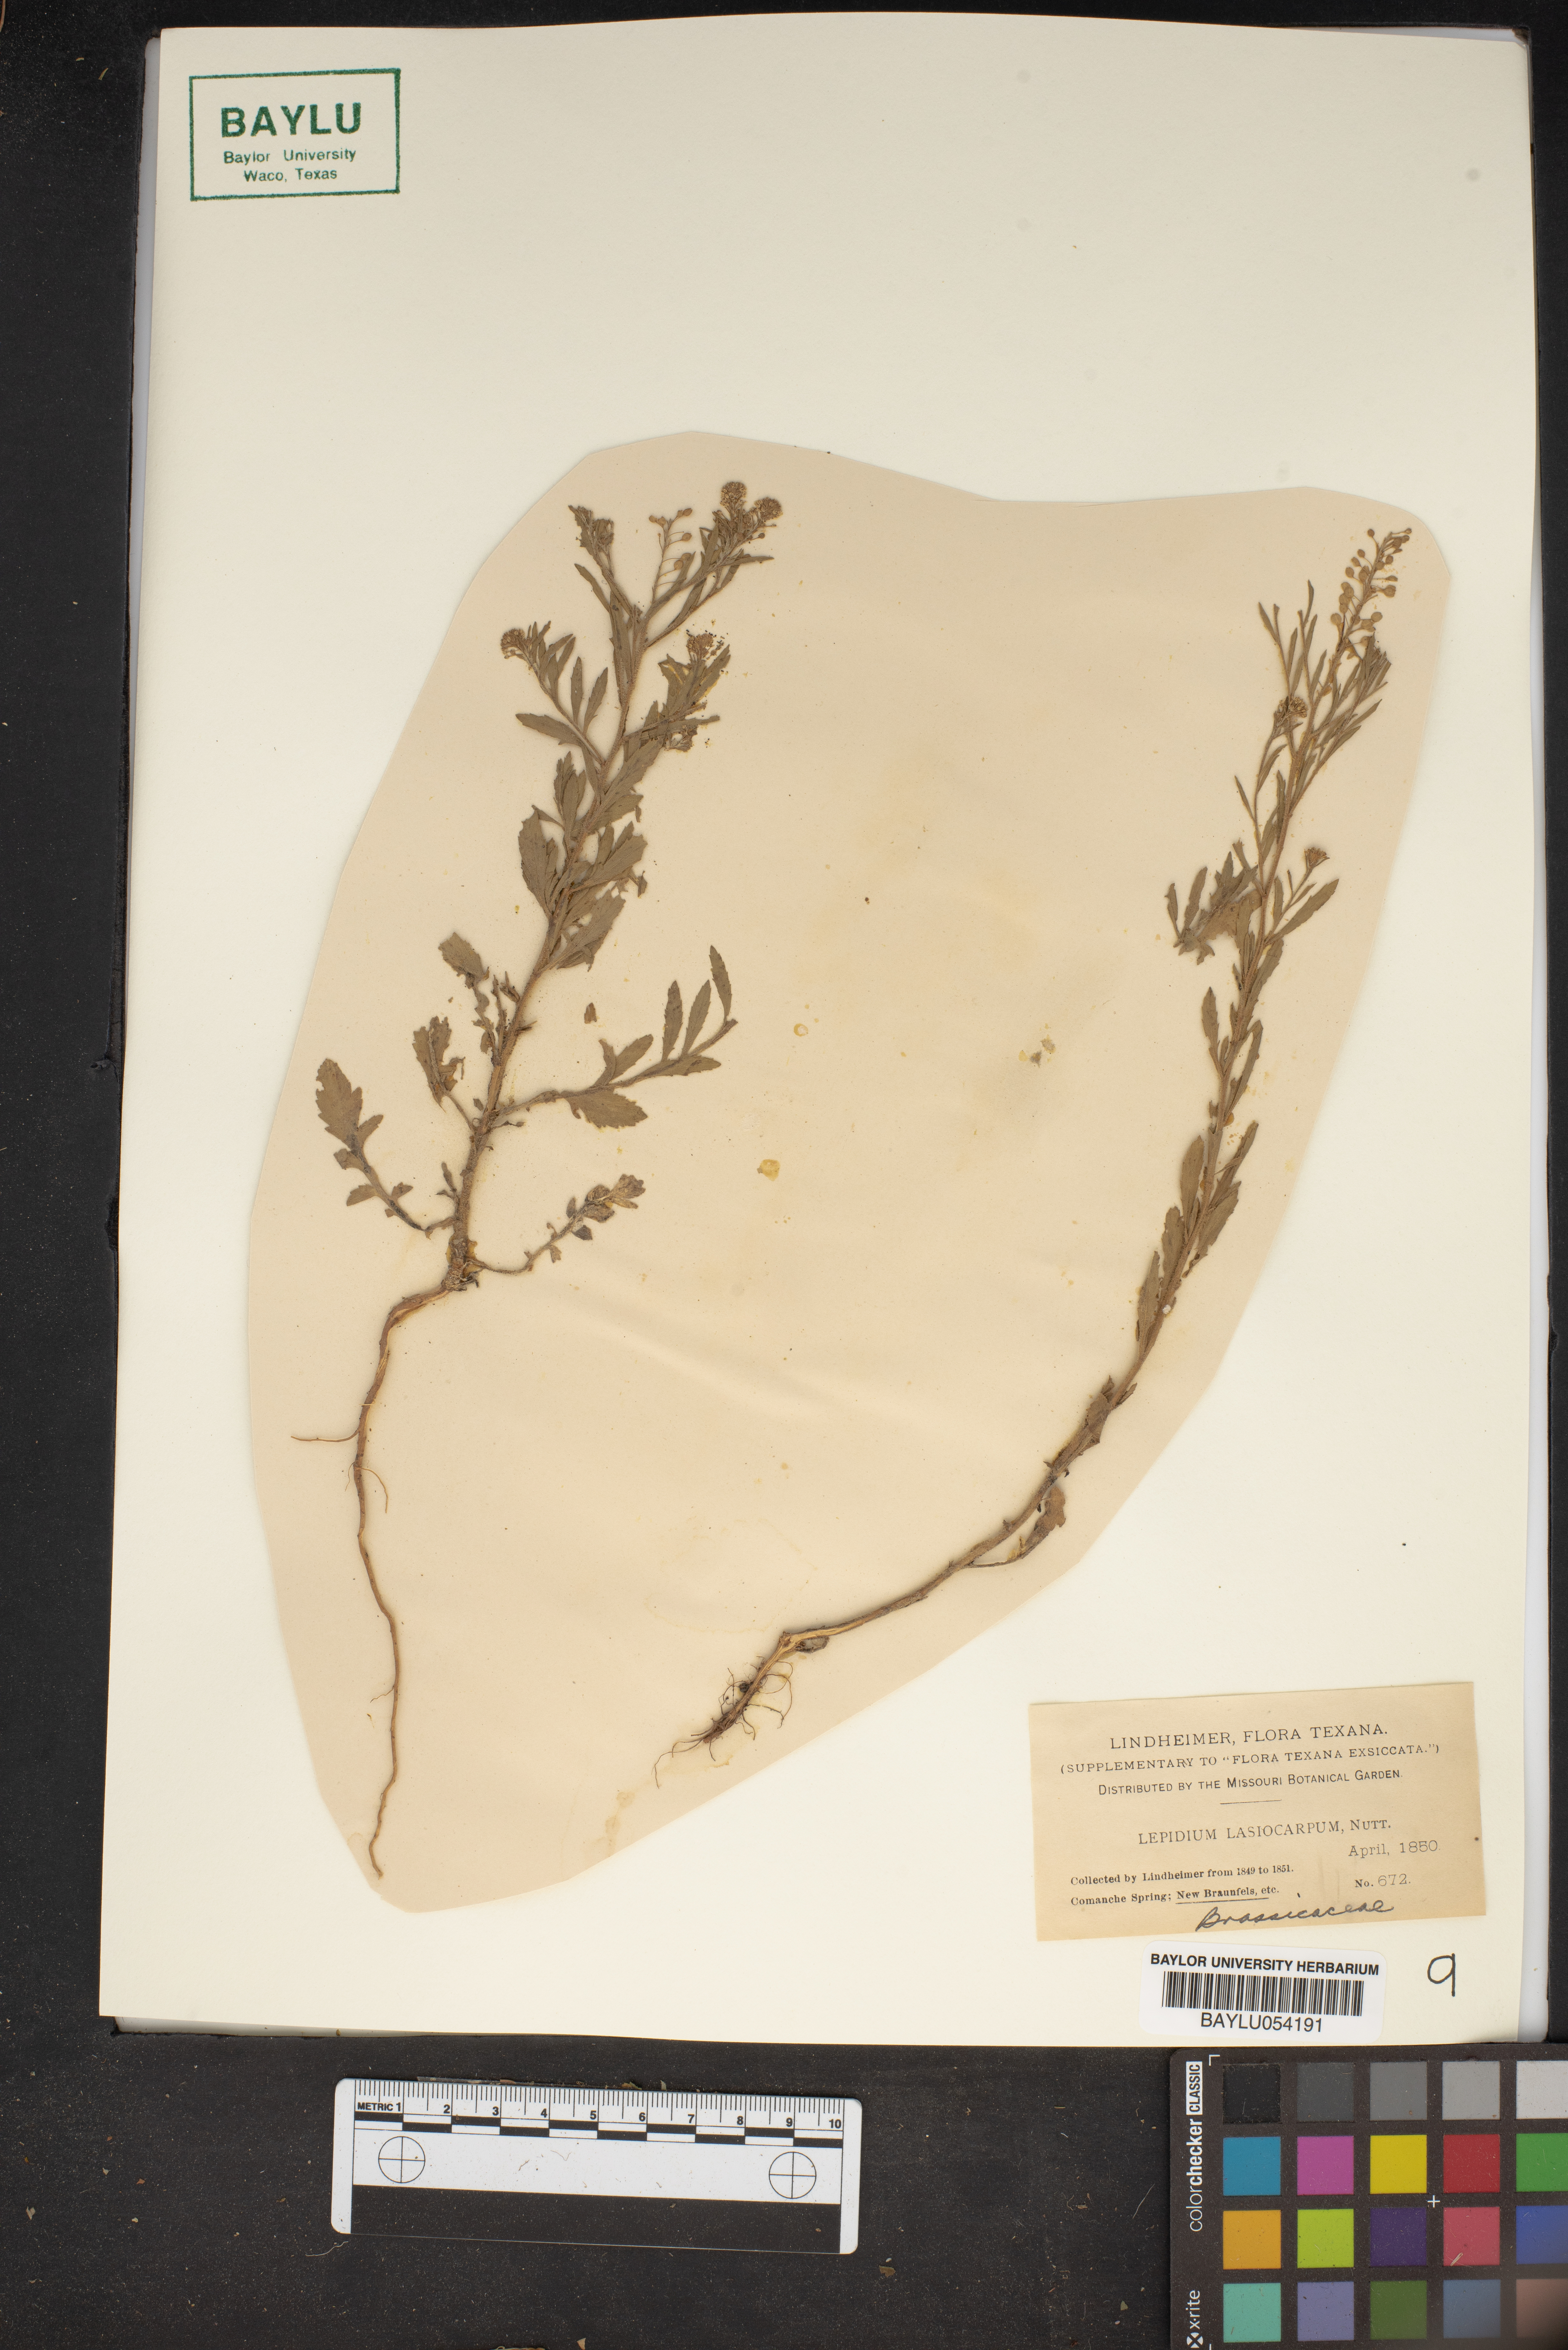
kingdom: Plantae
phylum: Tracheophyta
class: Magnoliopsida
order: Brassicales
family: Brassicaceae
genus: Lepidium
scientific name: Lepidium lasiocarpum
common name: Hairy-pod pepperwort
